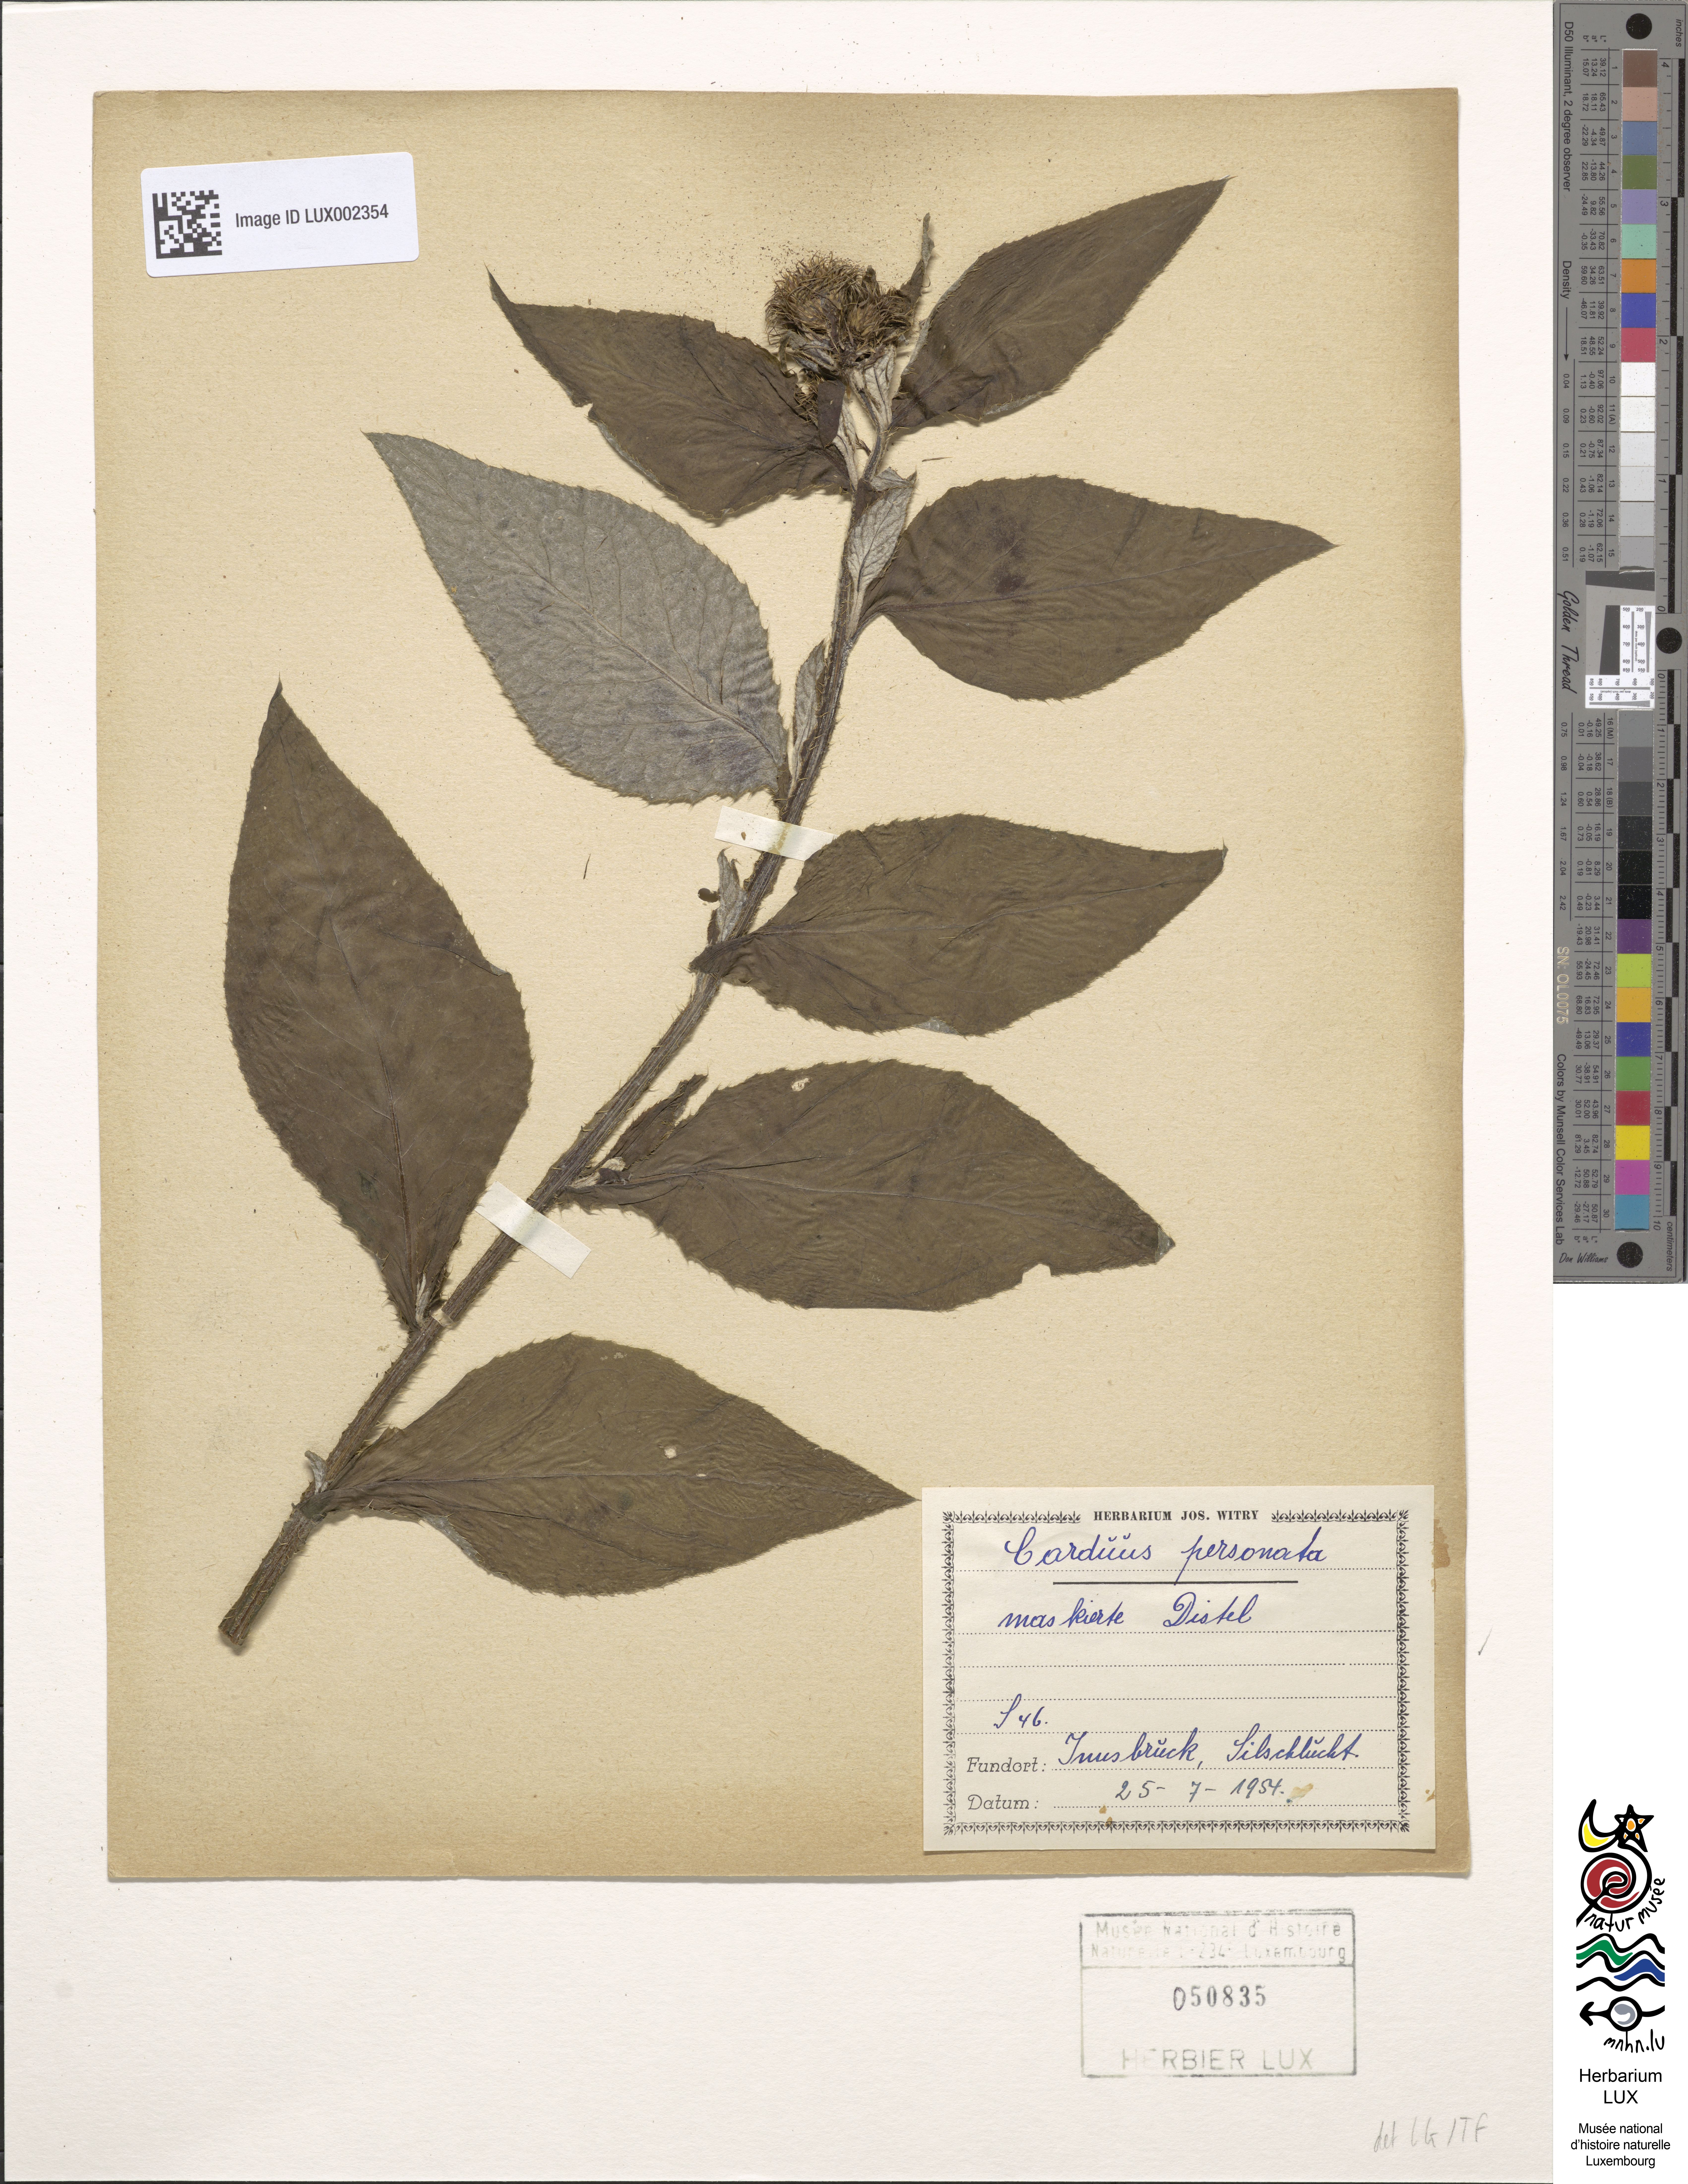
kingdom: Plantae
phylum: Tracheophyta
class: Magnoliopsida
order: Asterales
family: Asteraceae
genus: Carduus
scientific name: Carduus personata
